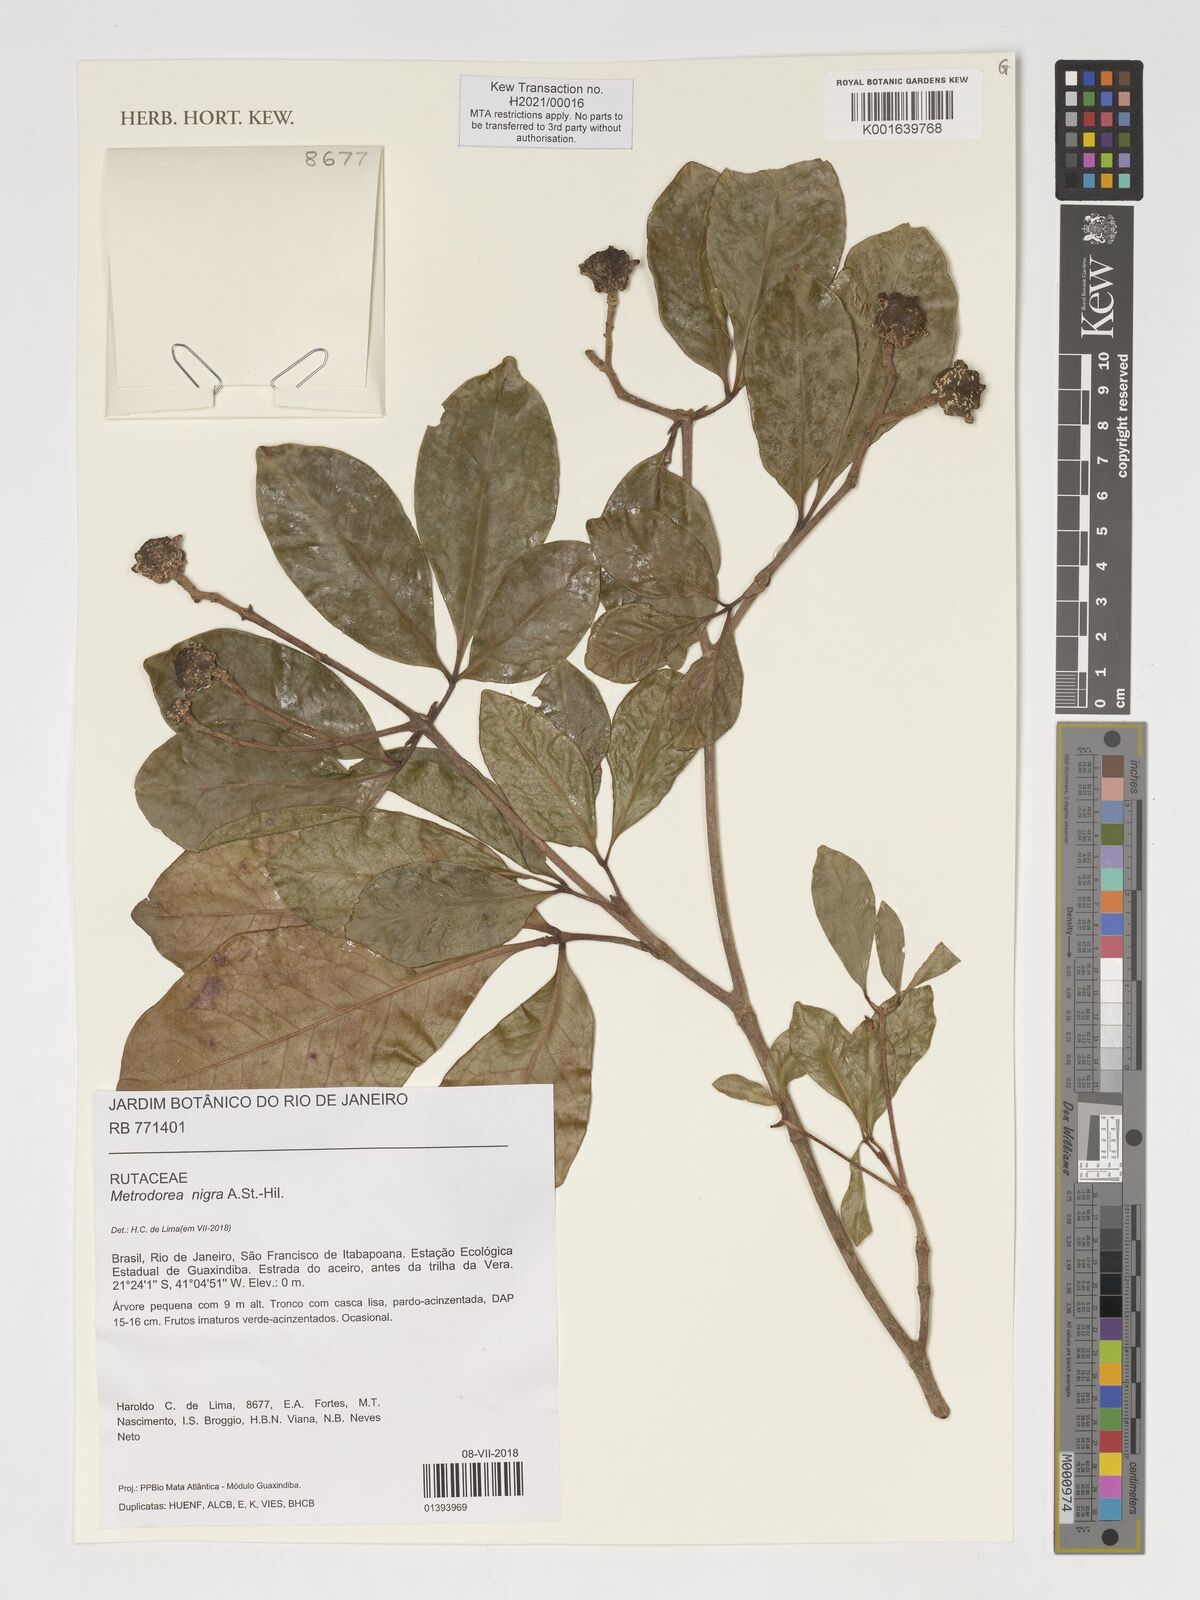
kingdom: Plantae
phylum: Tracheophyta
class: Magnoliopsida
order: Sapindales
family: Rutaceae
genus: Metrodorea
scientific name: Metrodorea nigra
